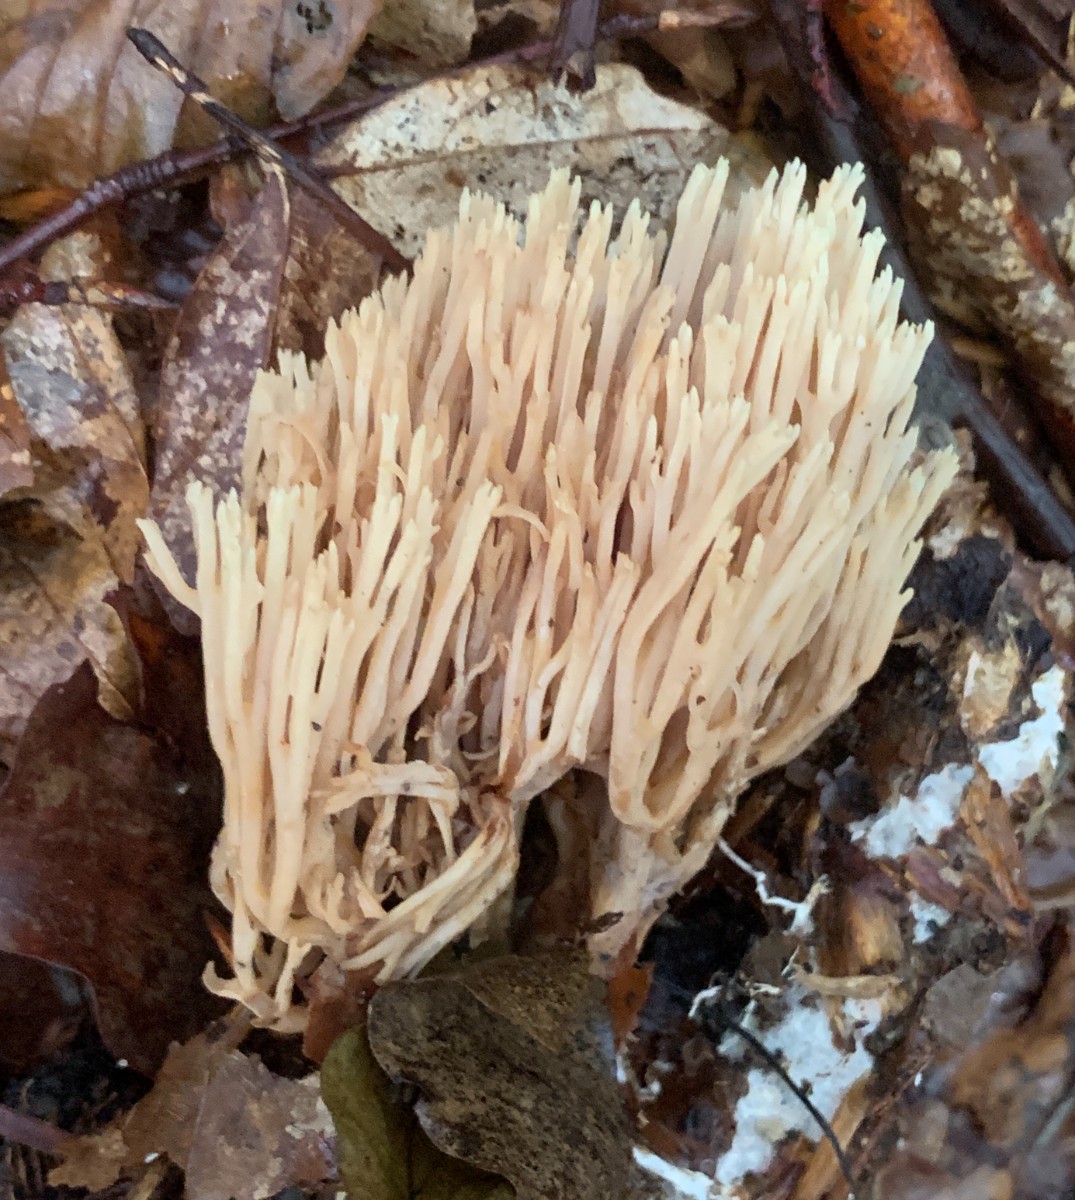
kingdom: Fungi
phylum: Basidiomycota
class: Agaricomycetes
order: Gomphales
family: Gomphaceae
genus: Ramaria
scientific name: Ramaria stricta
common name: rank koralsvamp
